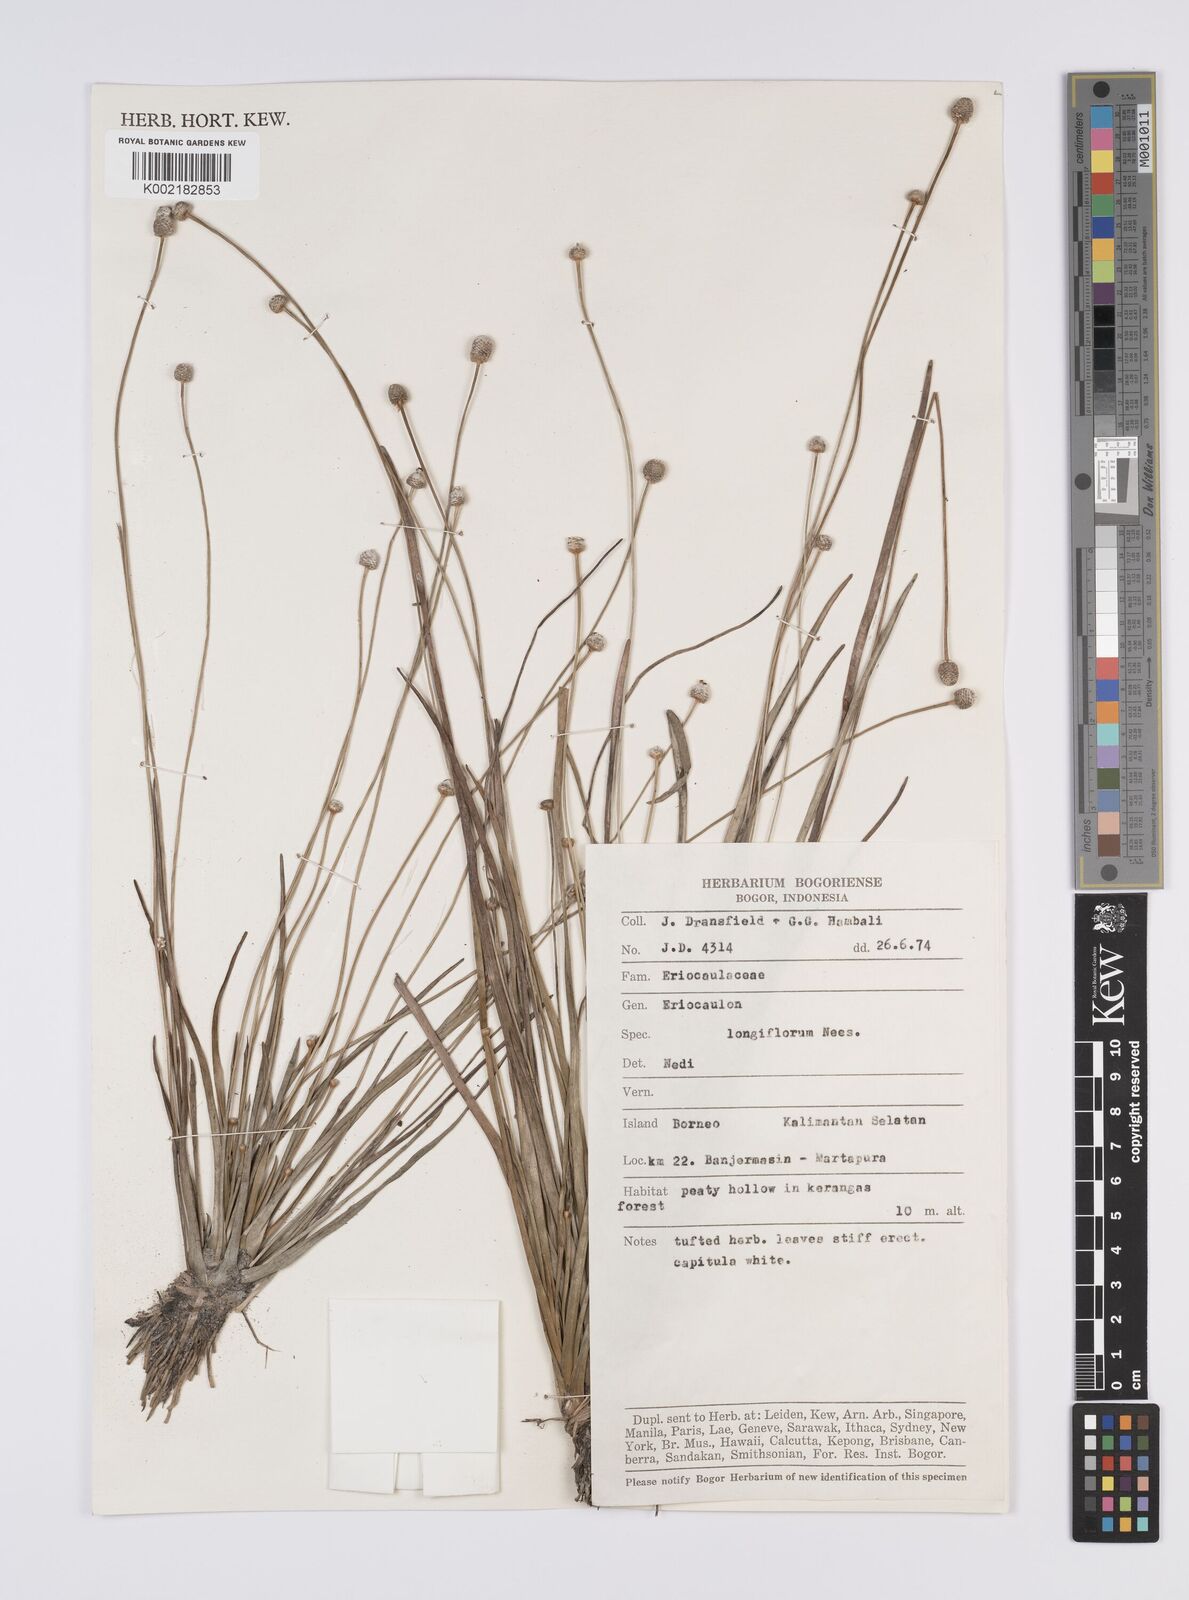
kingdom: Plantae
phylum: Tracheophyta
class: Liliopsida
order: Poales
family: Eriocaulaceae
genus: Eriocaulon
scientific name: Eriocaulon willdenovianum
